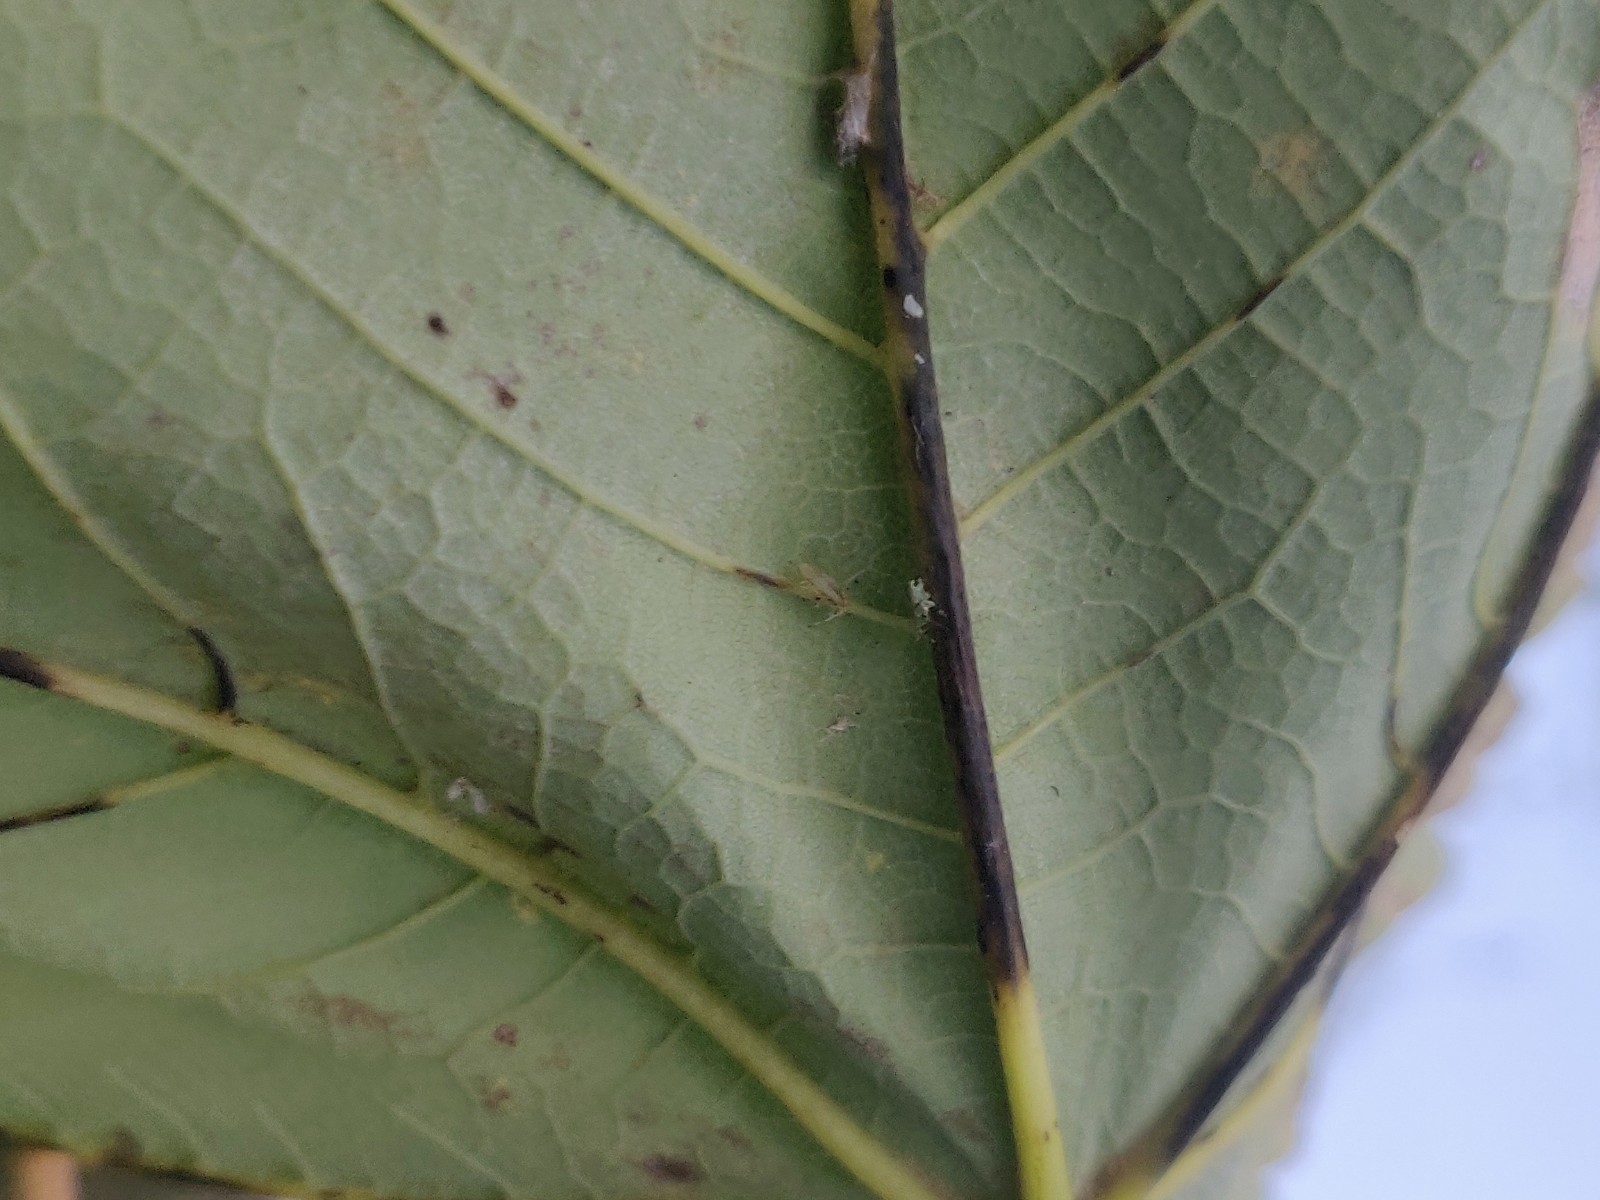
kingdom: Fungi
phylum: Ascomycota
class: Sordariomycetes
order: Diaporthales
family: Gnomoniaceae
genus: Pleuroceras
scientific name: Pleuroceras pseudoplatani
